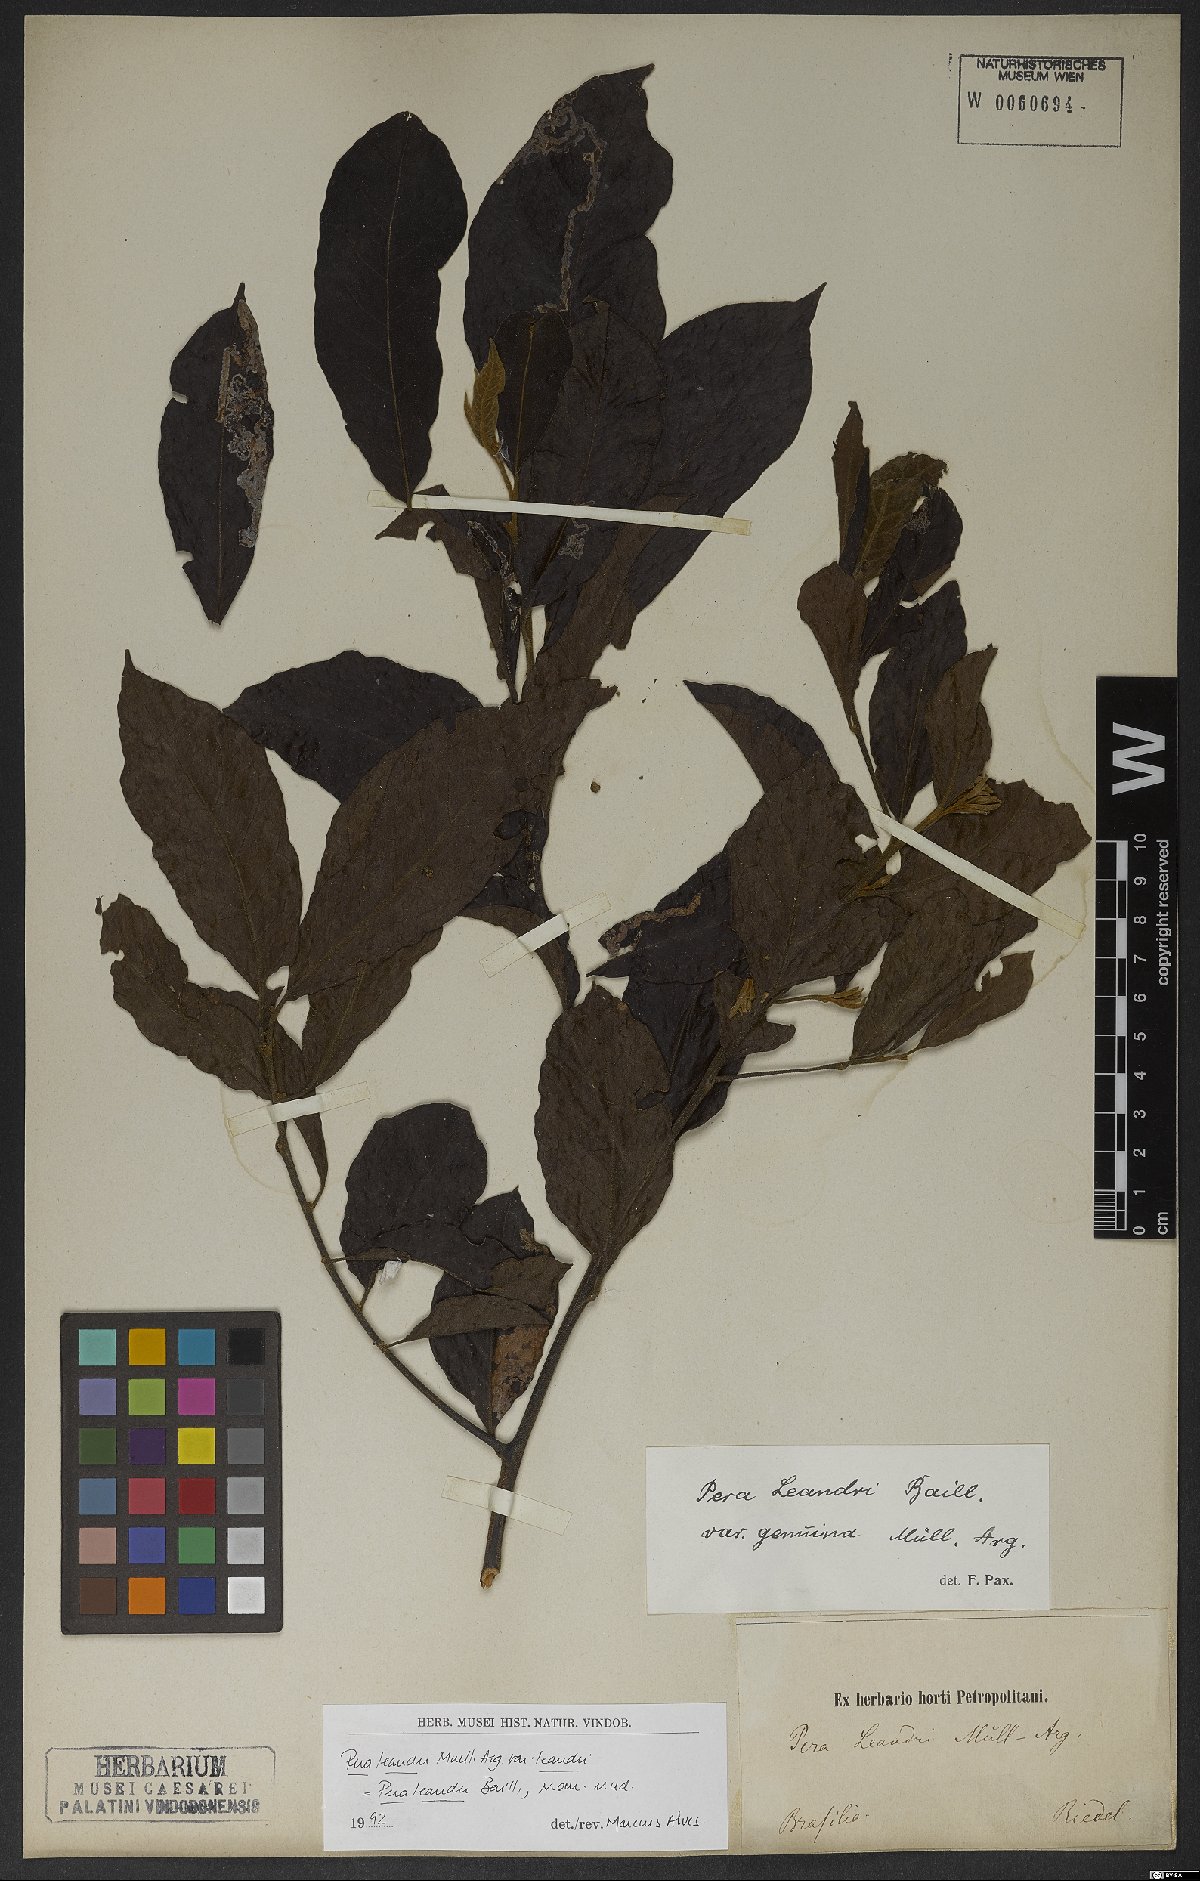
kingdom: Plantae
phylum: Tracheophyta
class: Magnoliopsida
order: Malpighiales
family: Peraceae
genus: Pera
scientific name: Pera heteranthera
